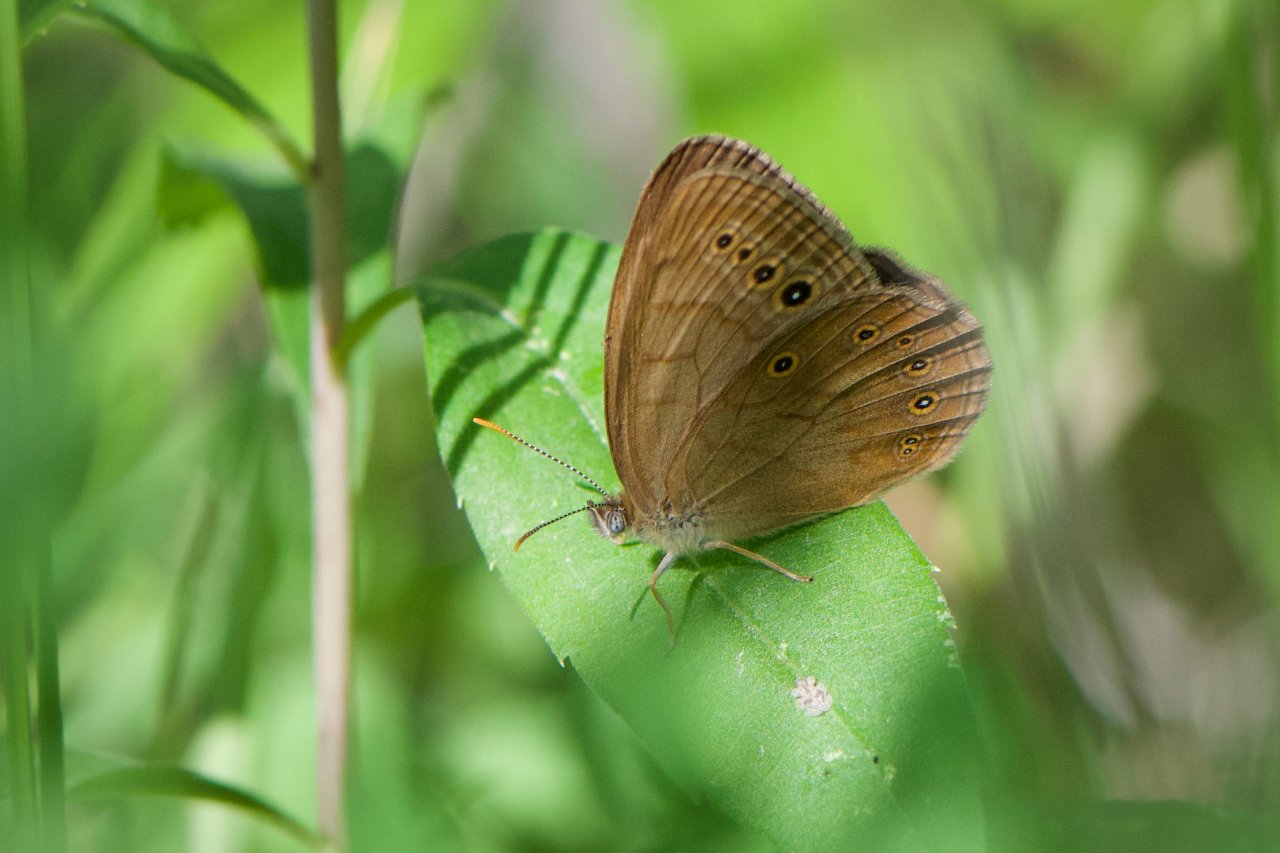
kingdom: Animalia
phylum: Arthropoda
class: Insecta
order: Lepidoptera
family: Nymphalidae
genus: Lethe
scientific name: Lethe eurydice
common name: Eyed Brown
